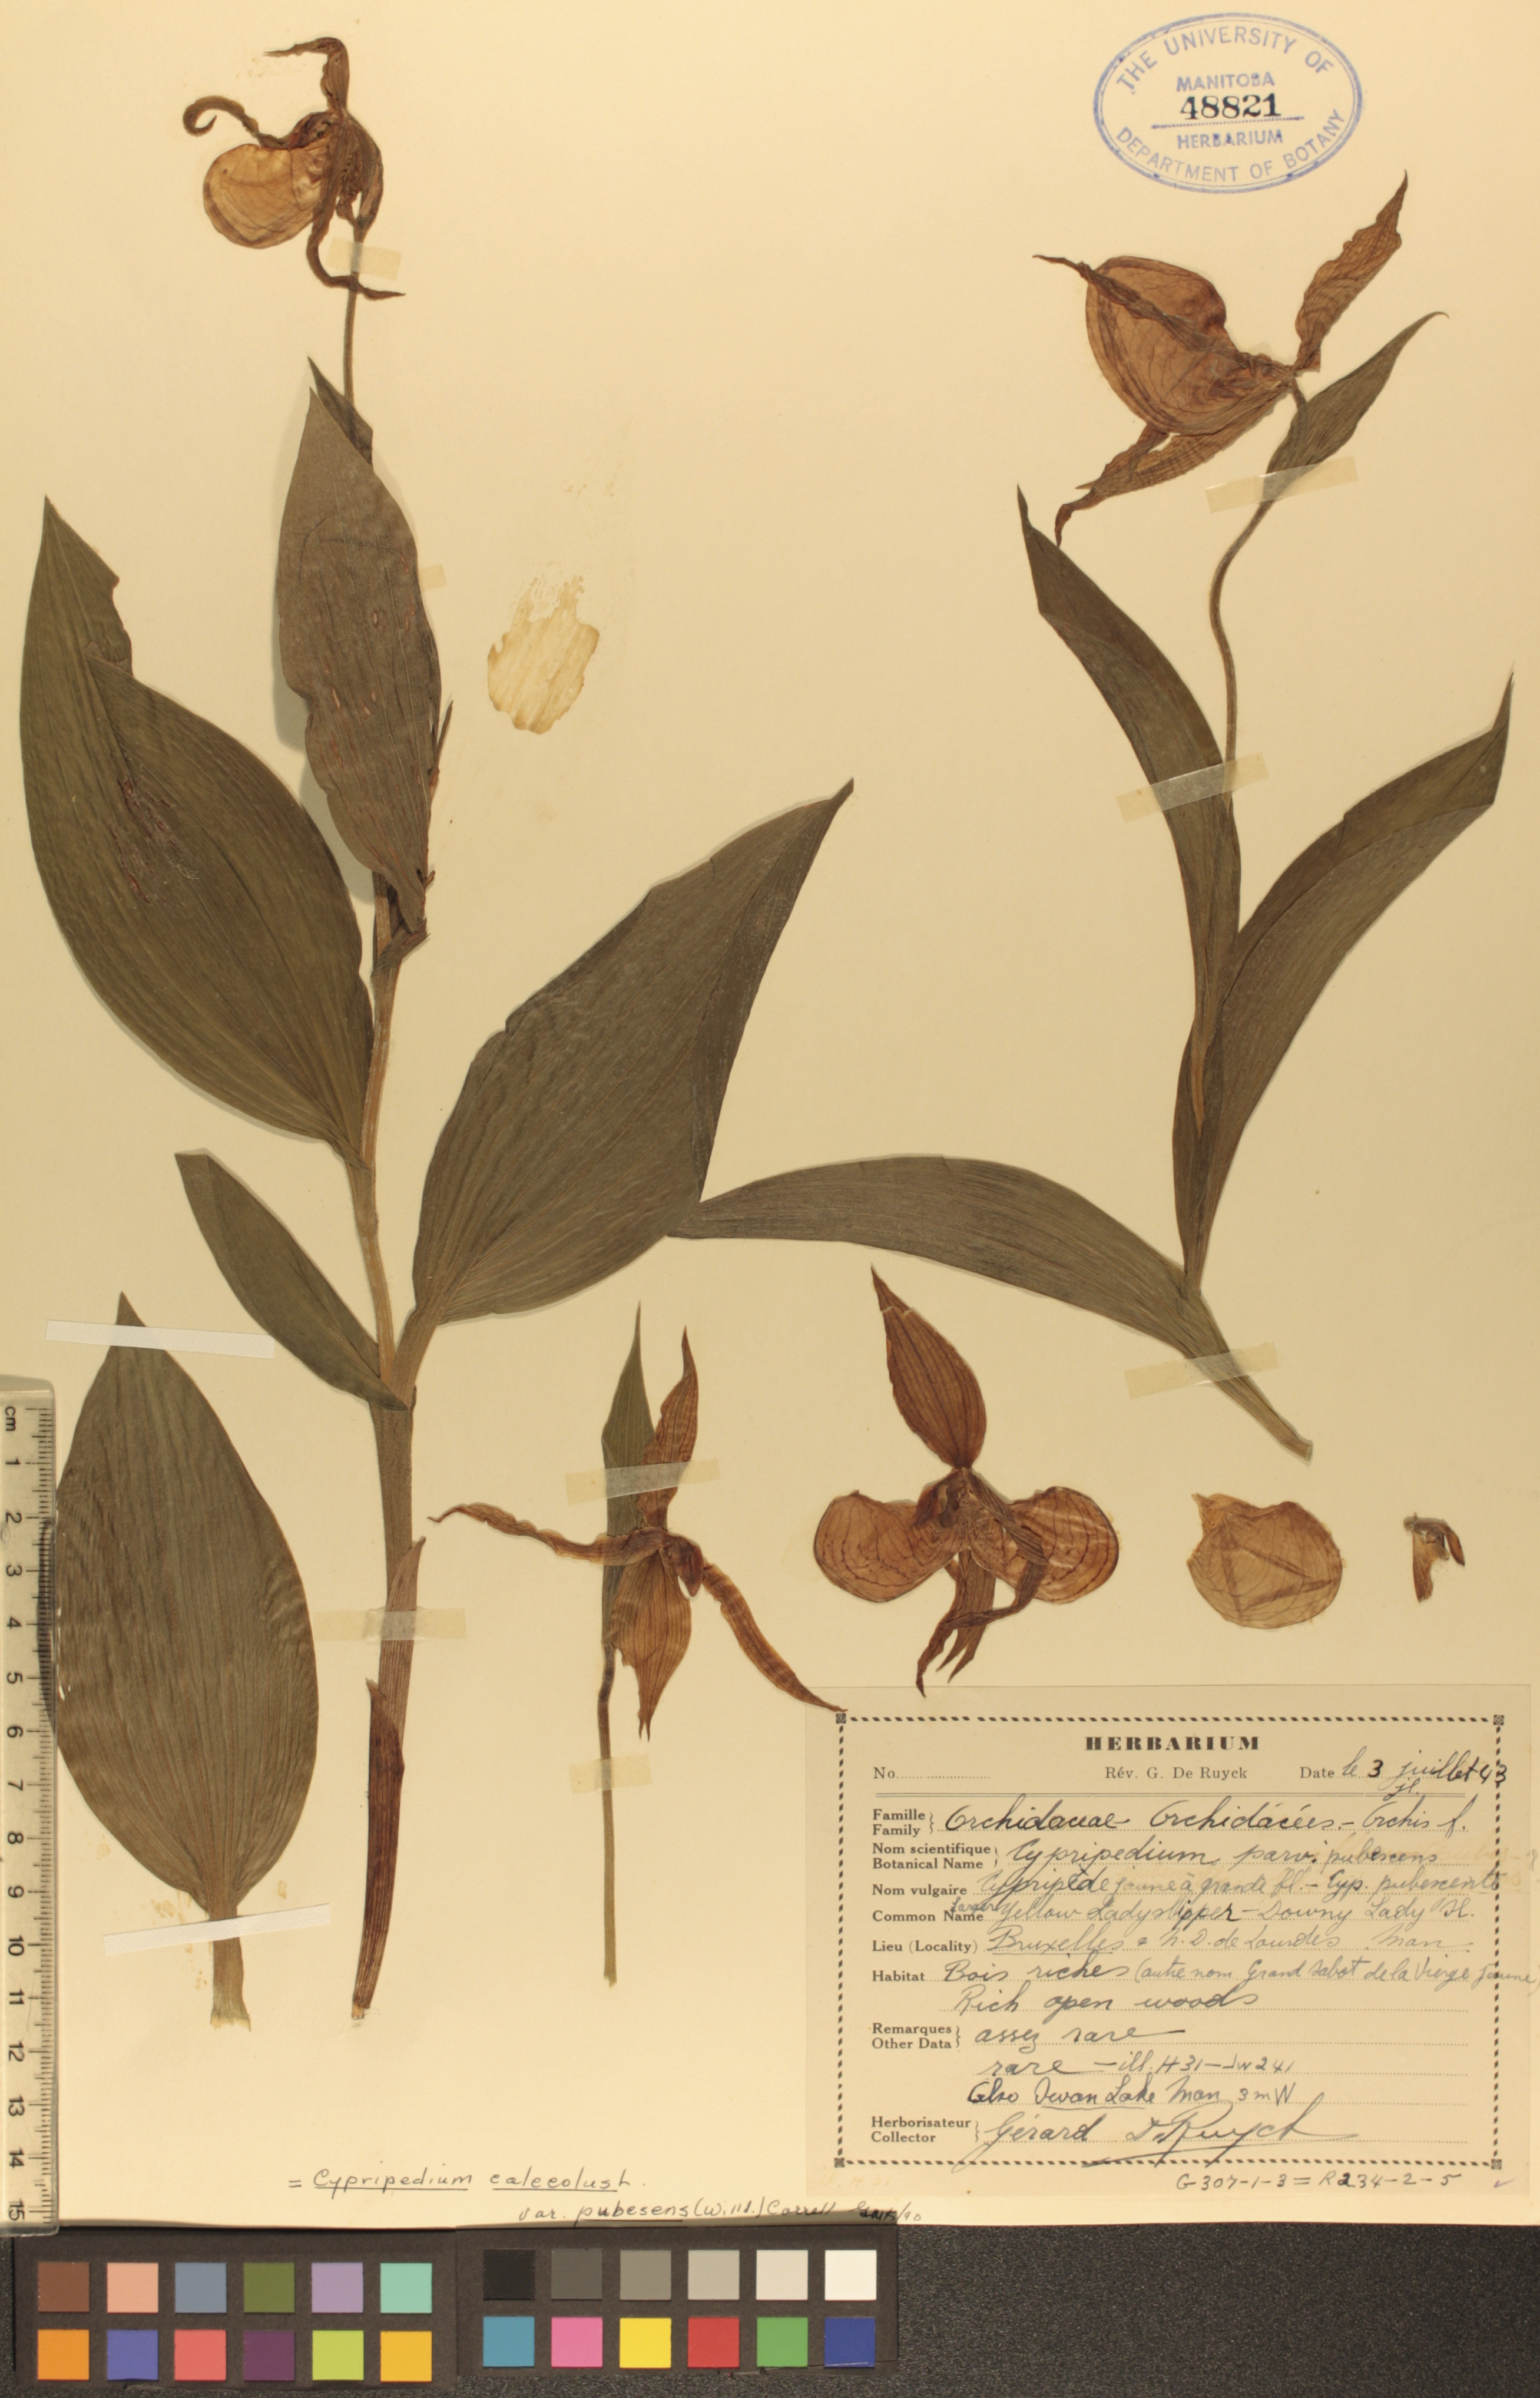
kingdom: Plantae
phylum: Tracheophyta
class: Liliopsida
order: Asparagales
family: Orchidaceae
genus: Cypripedium
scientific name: Cypripedium parviflorum
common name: American yellow lady's-slipper
